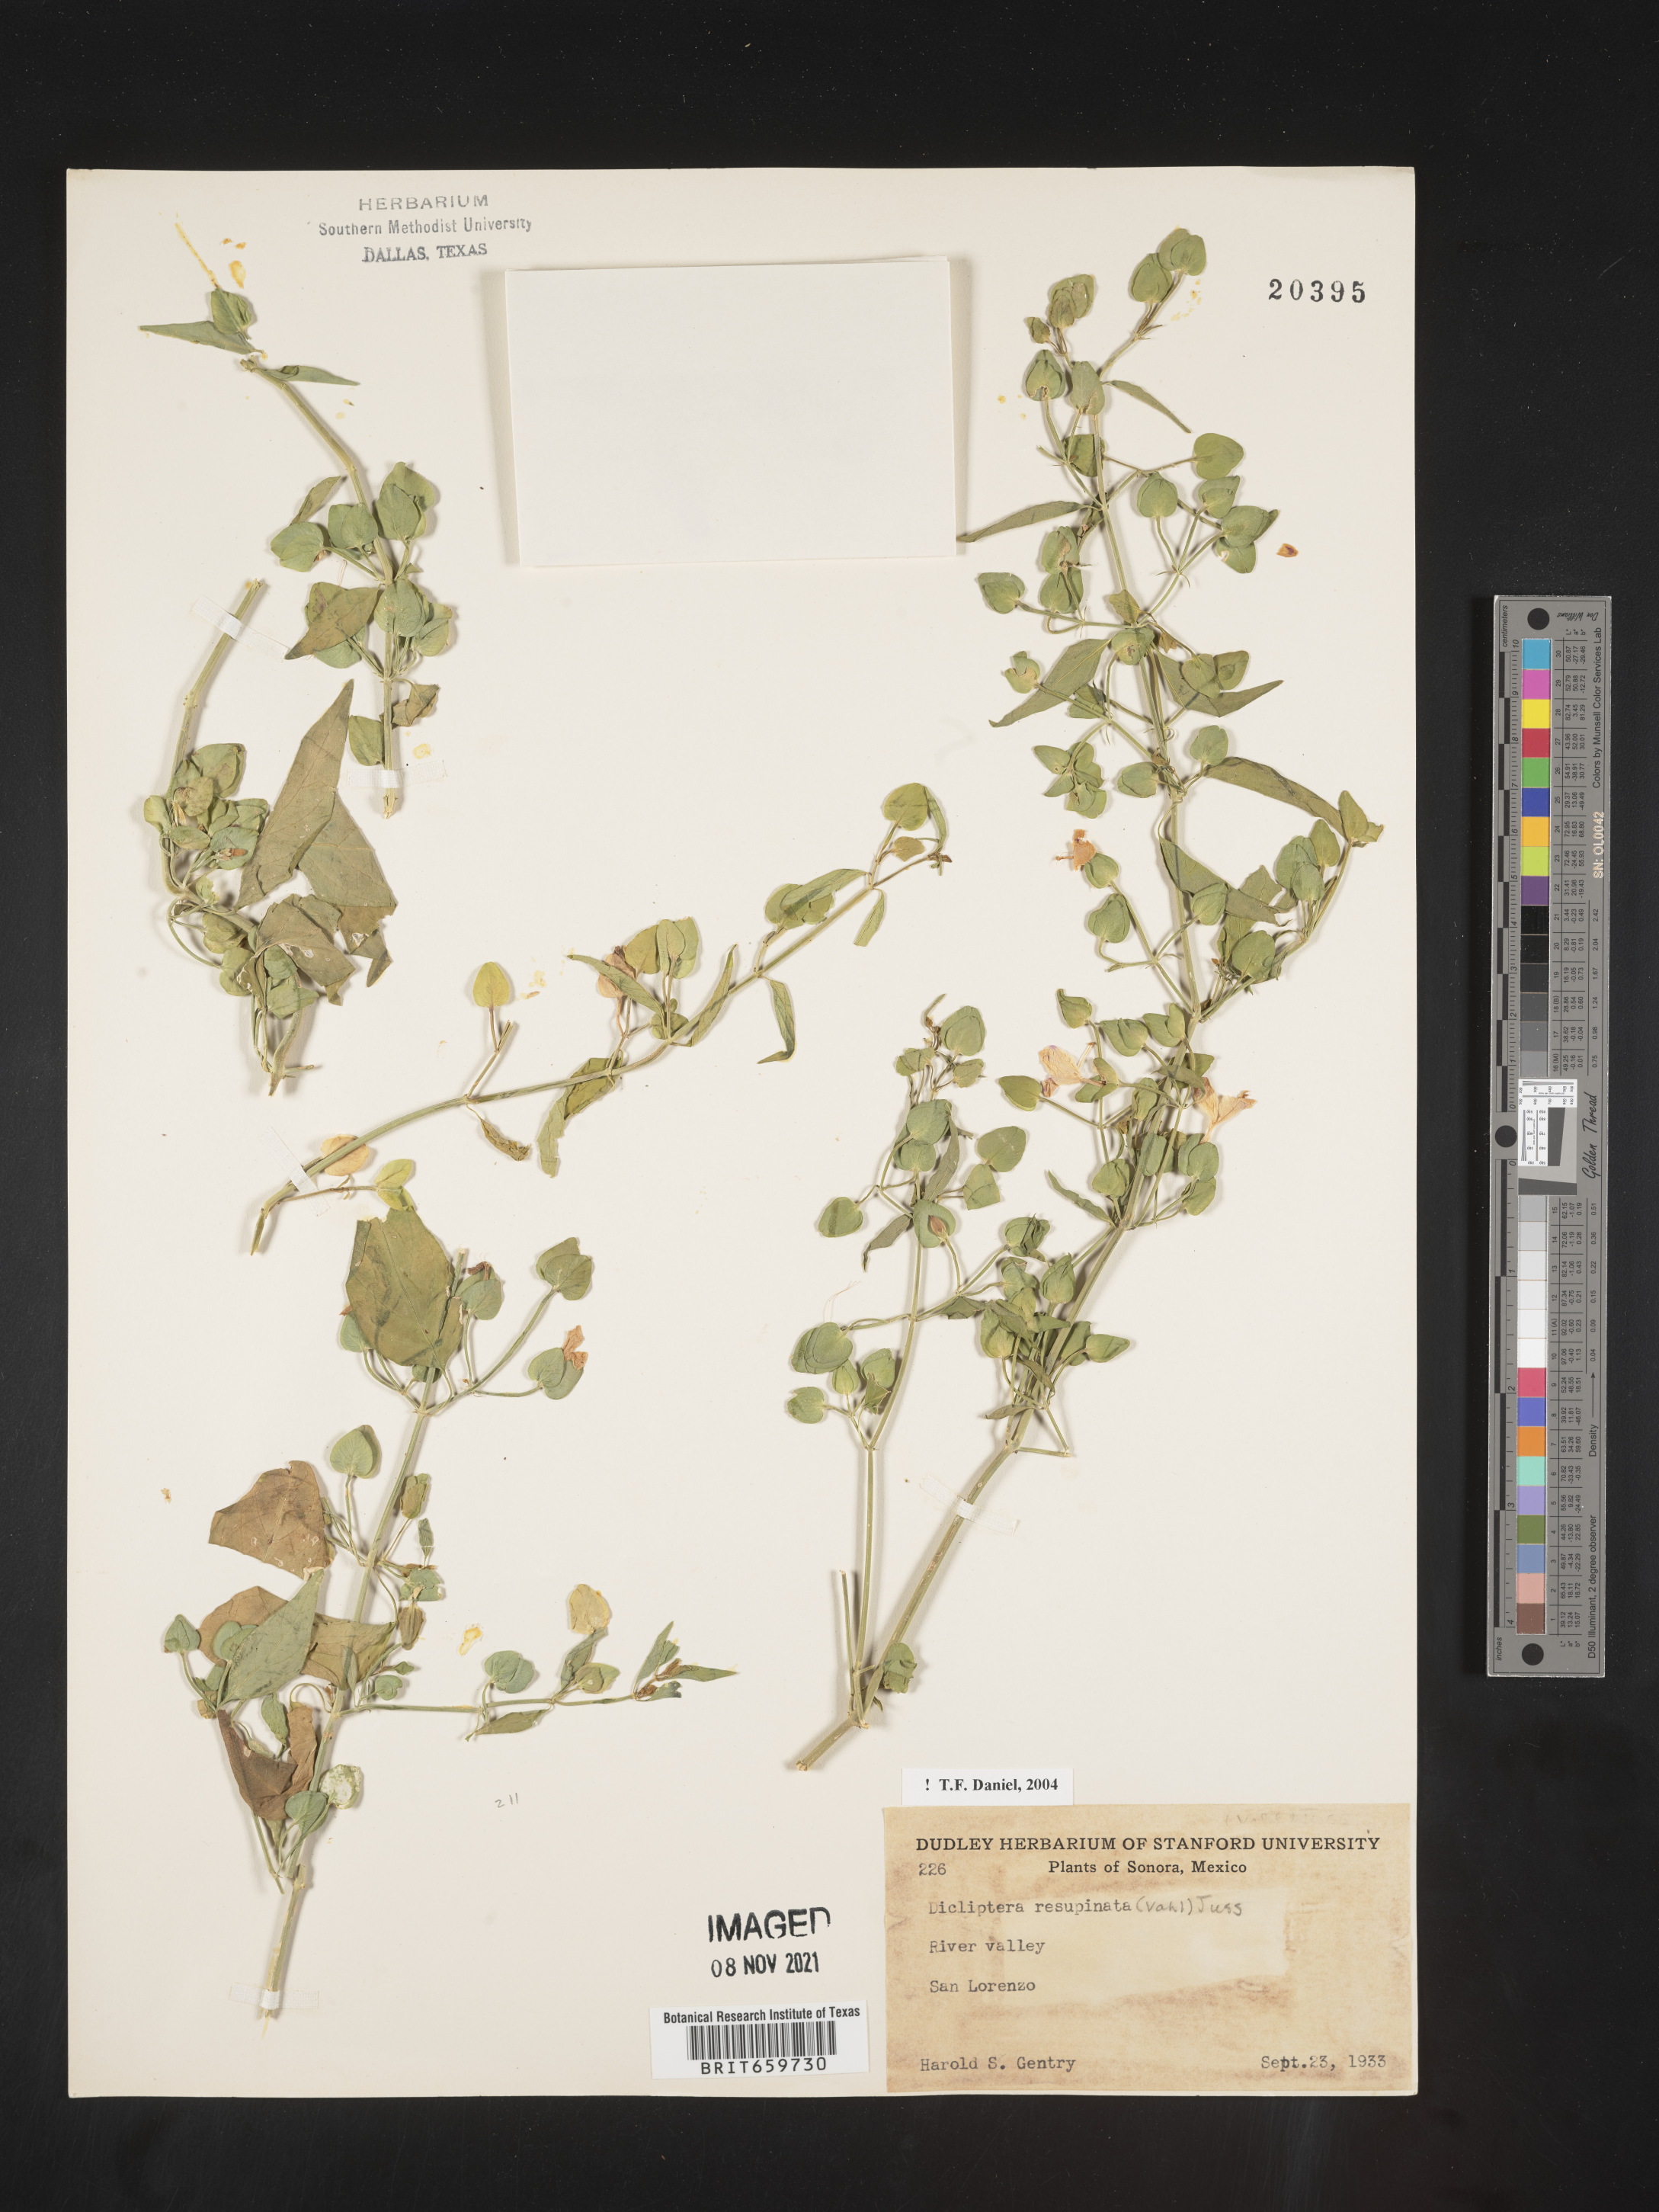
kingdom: Plantae
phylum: Tracheophyta
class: Magnoliopsida
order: Lamiales
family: Acanthaceae
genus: Dicliptera
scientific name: Dicliptera
